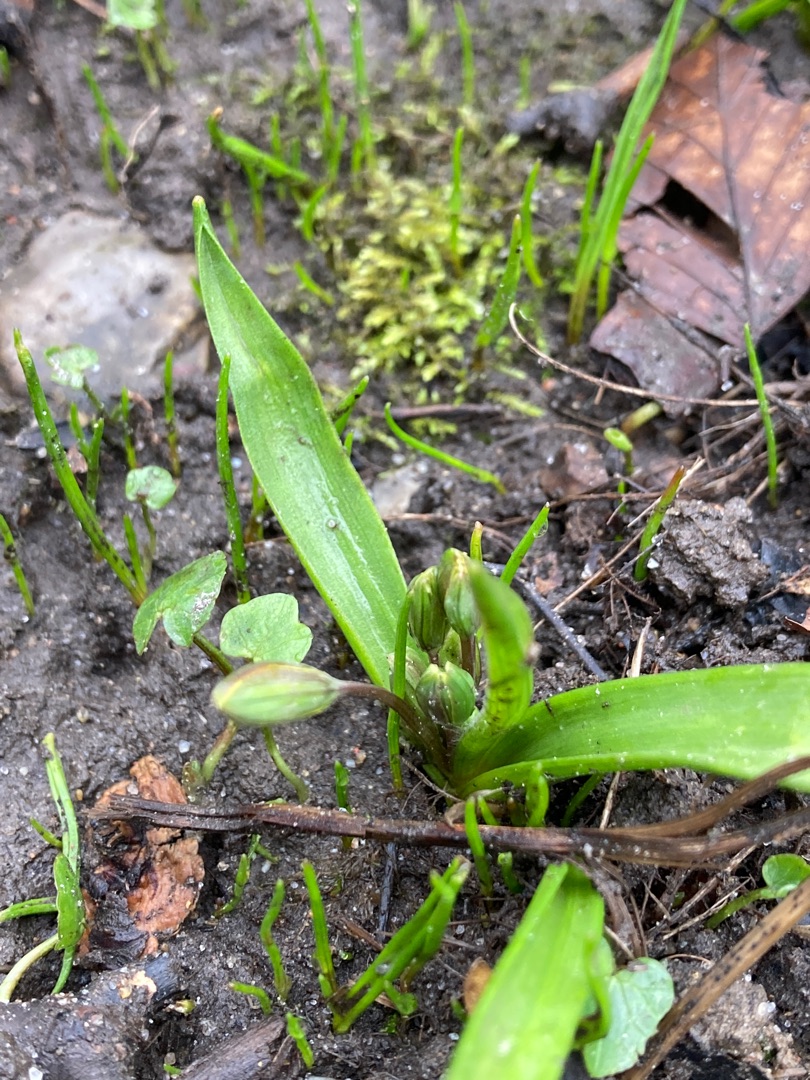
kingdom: Plantae
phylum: Tracheophyta
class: Liliopsida
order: Liliales
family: Liliaceae
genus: Gagea
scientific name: Gagea lutea
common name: Almindelig guldstjerne
